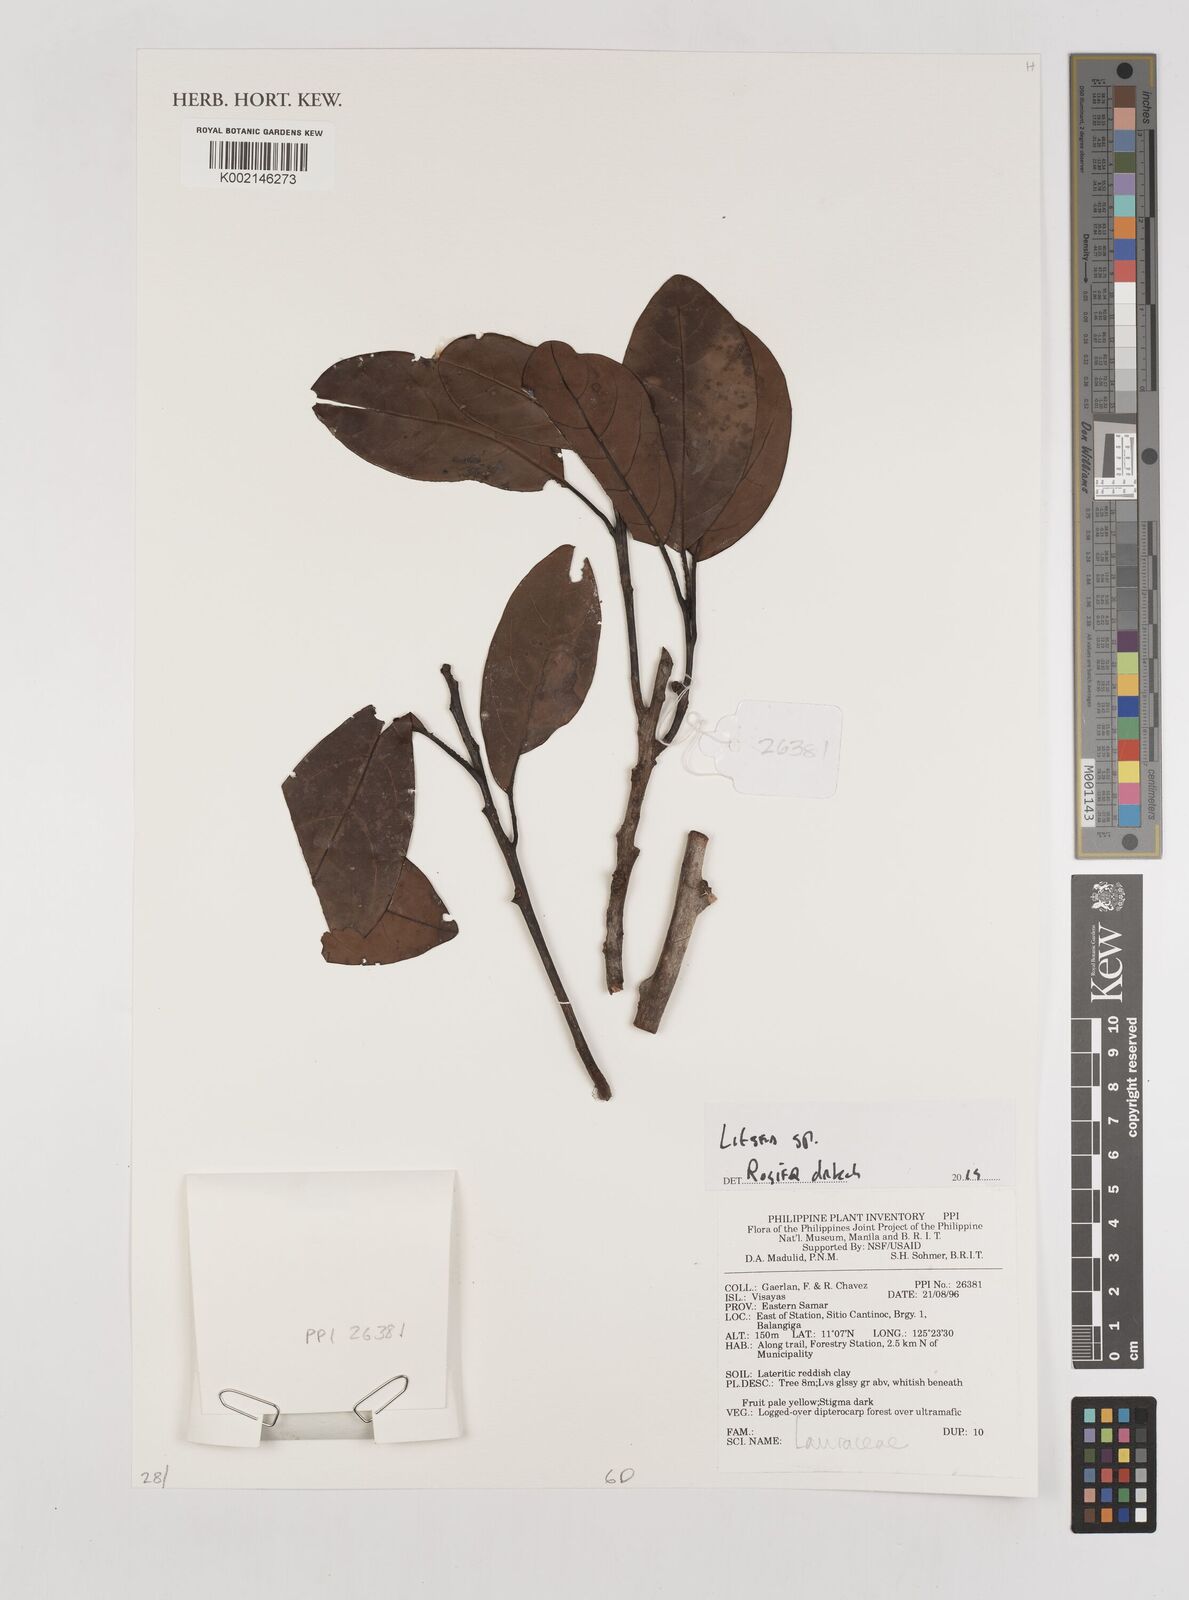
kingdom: Plantae
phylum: Tracheophyta
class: Magnoliopsida
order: Laurales
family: Lauraceae
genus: Litsea
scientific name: Litsea
